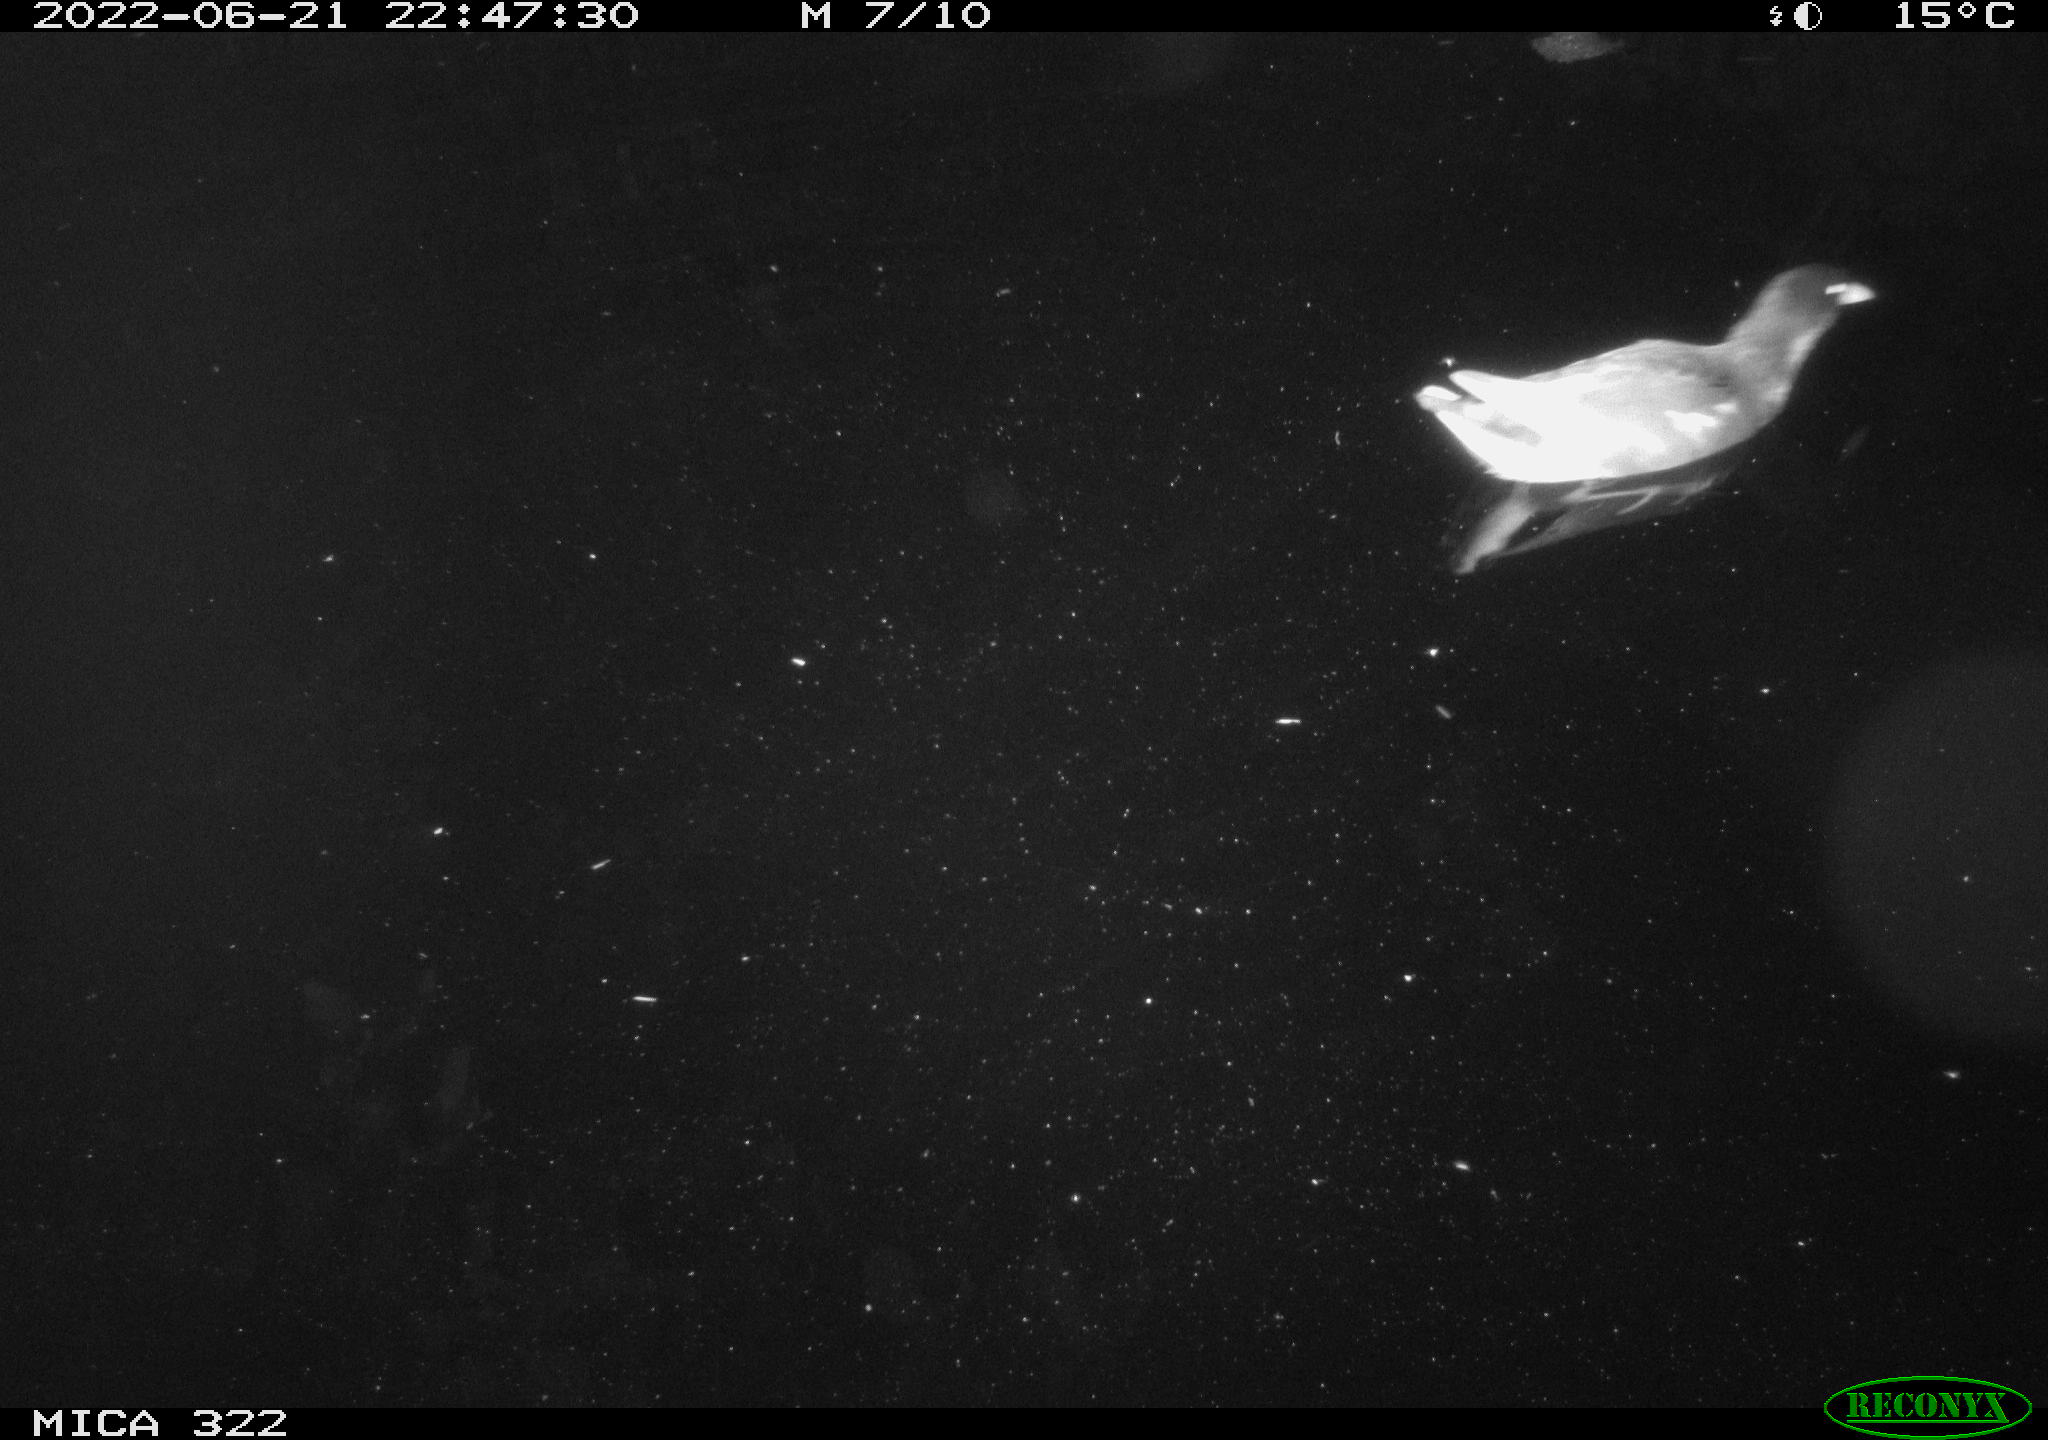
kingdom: Animalia
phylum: Chordata
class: Aves
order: Gruiformes
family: Rallidae
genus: Gallinula
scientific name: Gallinula chloropus
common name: Common moorhen
